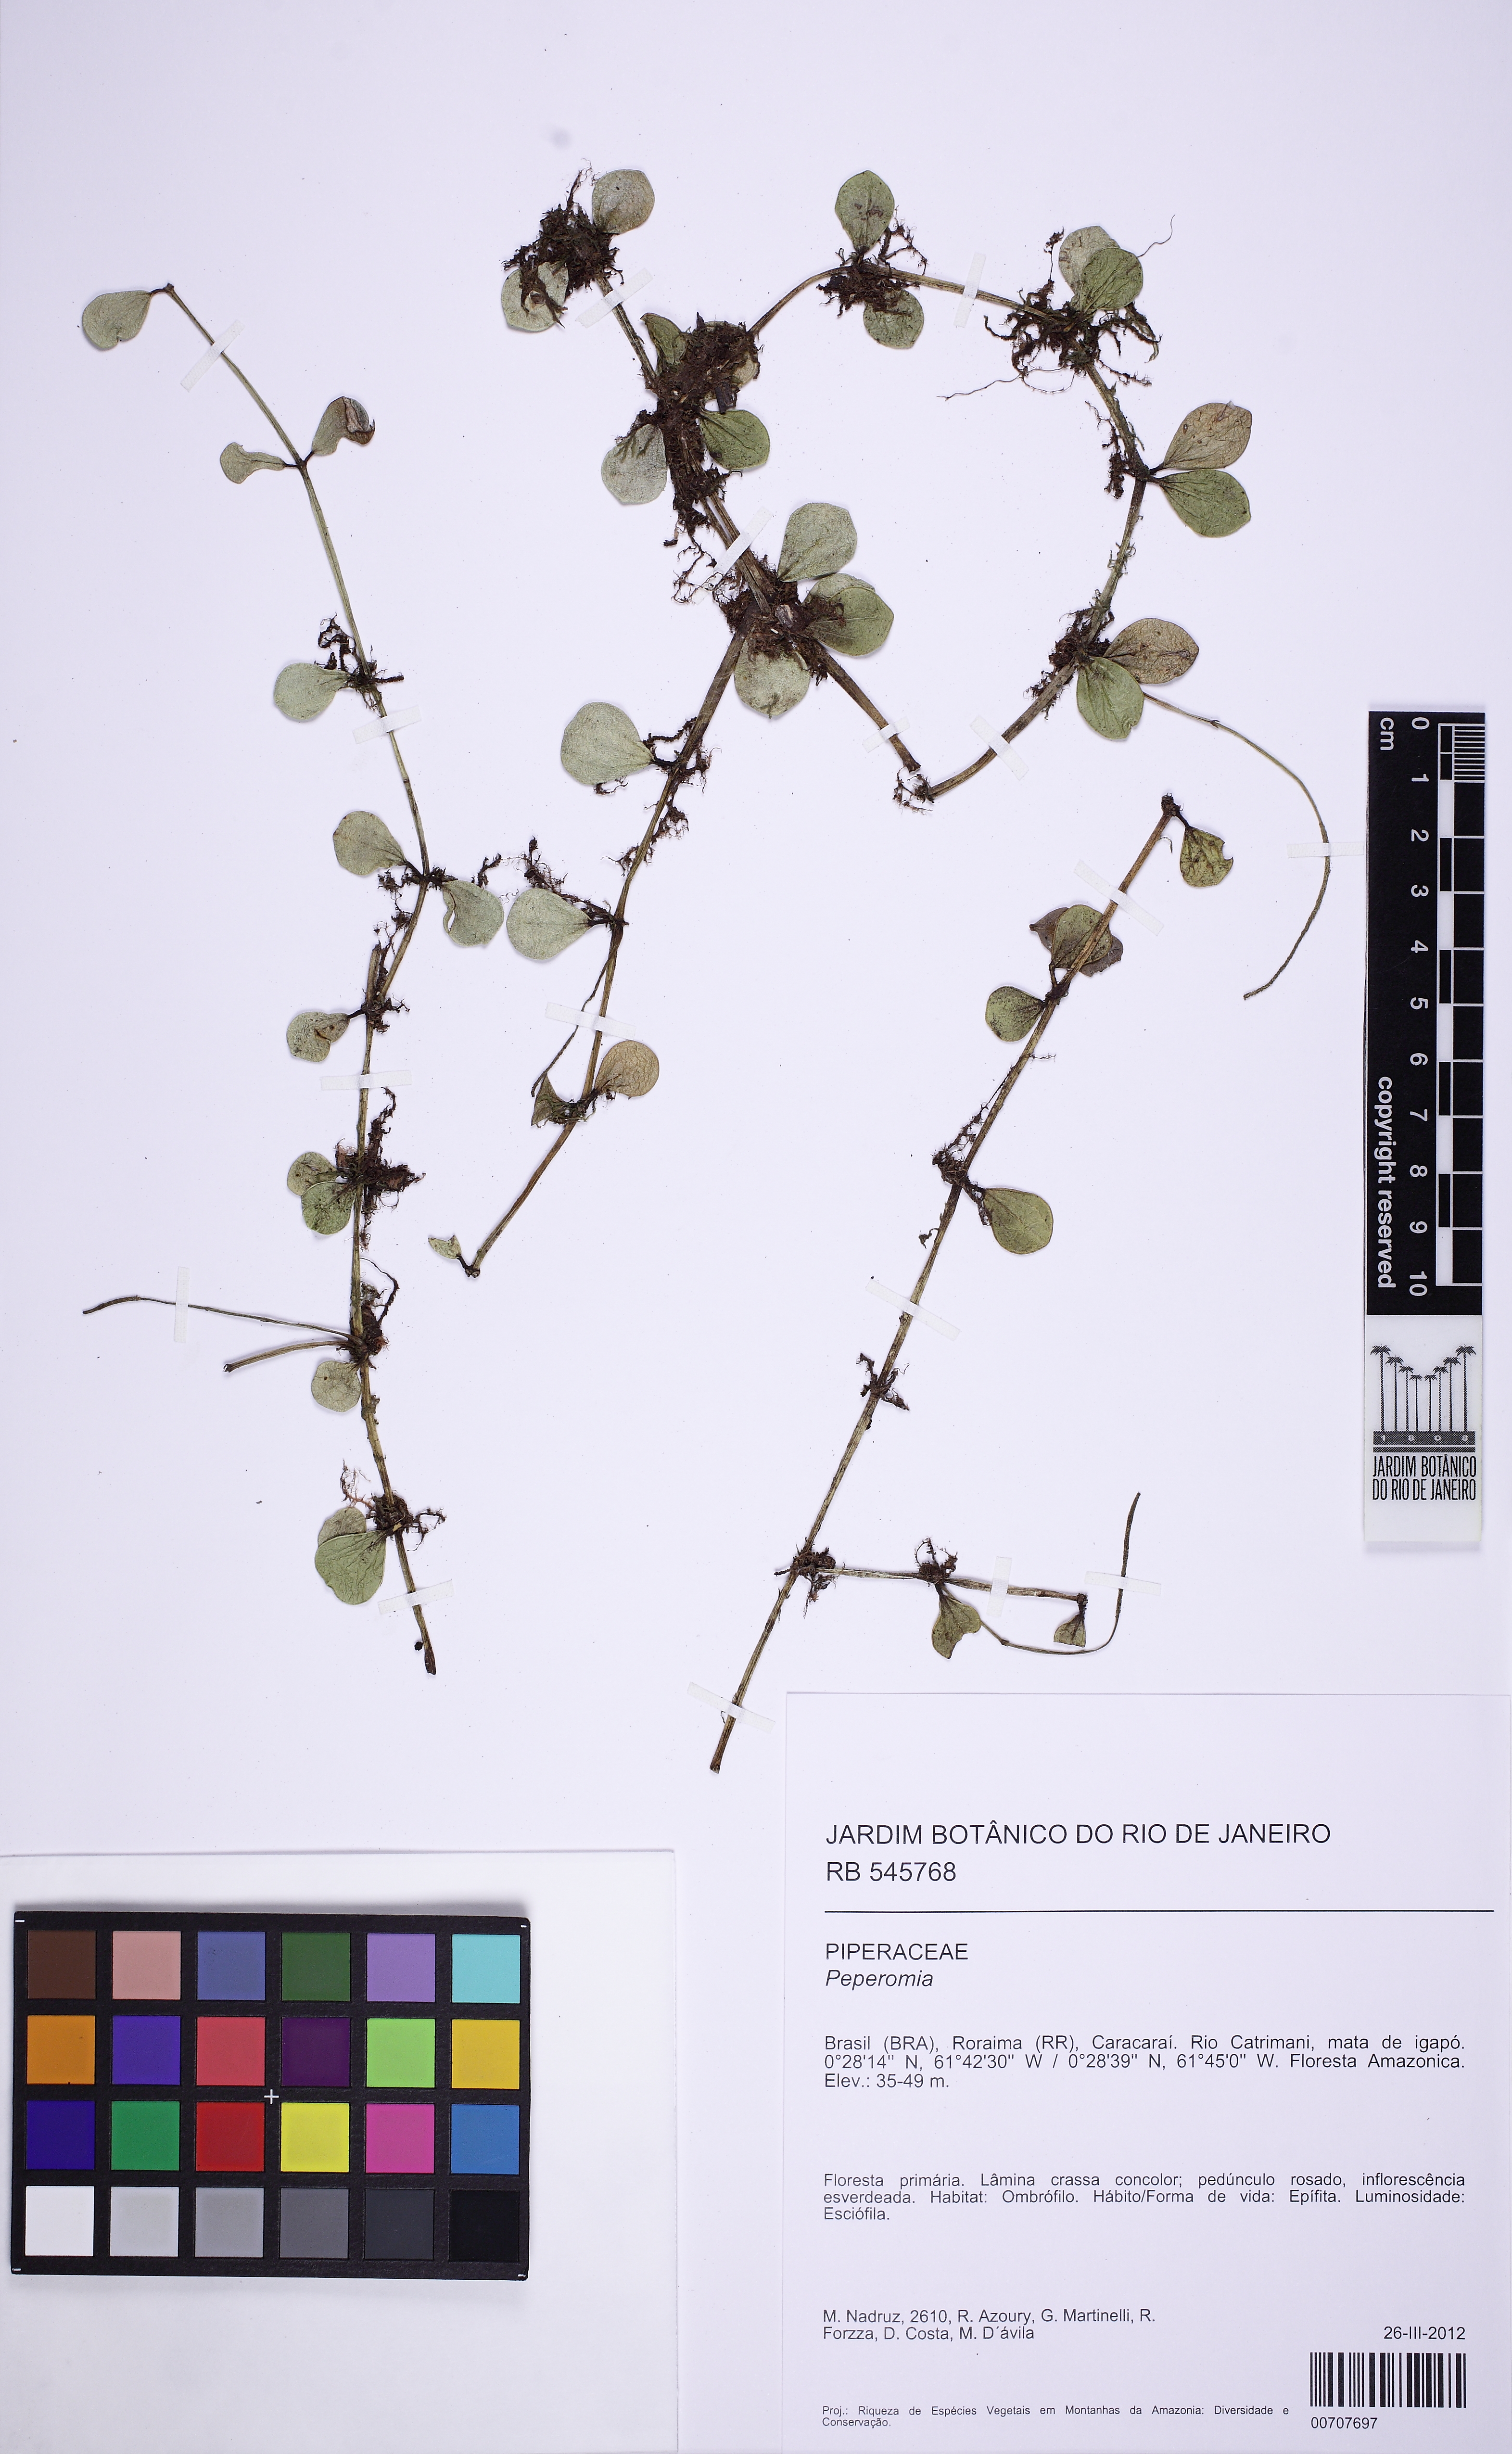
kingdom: Plantae
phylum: Tracheophyta
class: Magnoliopsida
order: Piperales
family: Piperaceae
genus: Peperomia
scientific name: Peperomia quadrangularis
